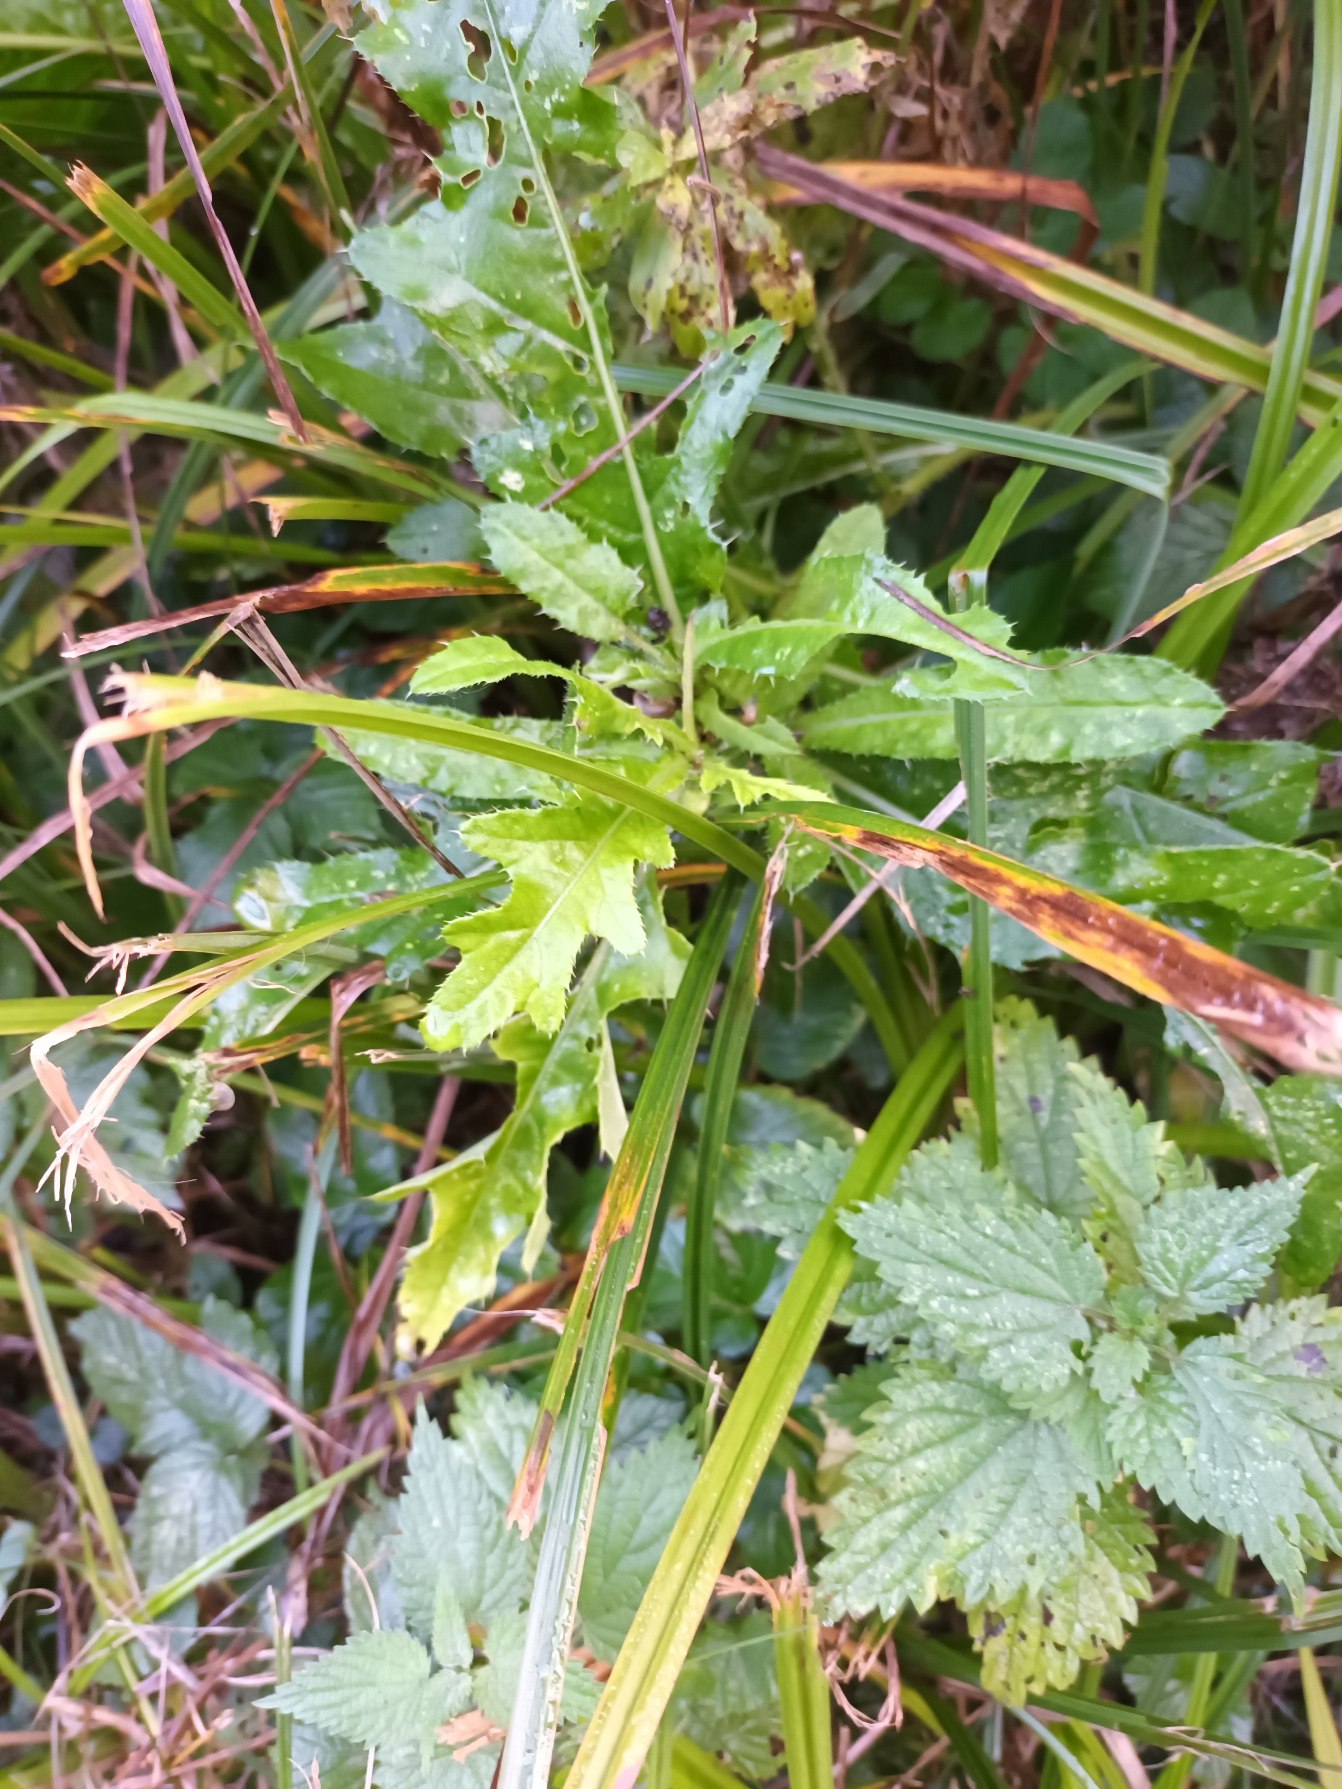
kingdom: Plantae
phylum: Tracheophyta
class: Magnoliopsida
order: Asterales
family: Asteraceae
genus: Cirsium
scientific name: Cirsium arvense
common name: Ager-tidsel
